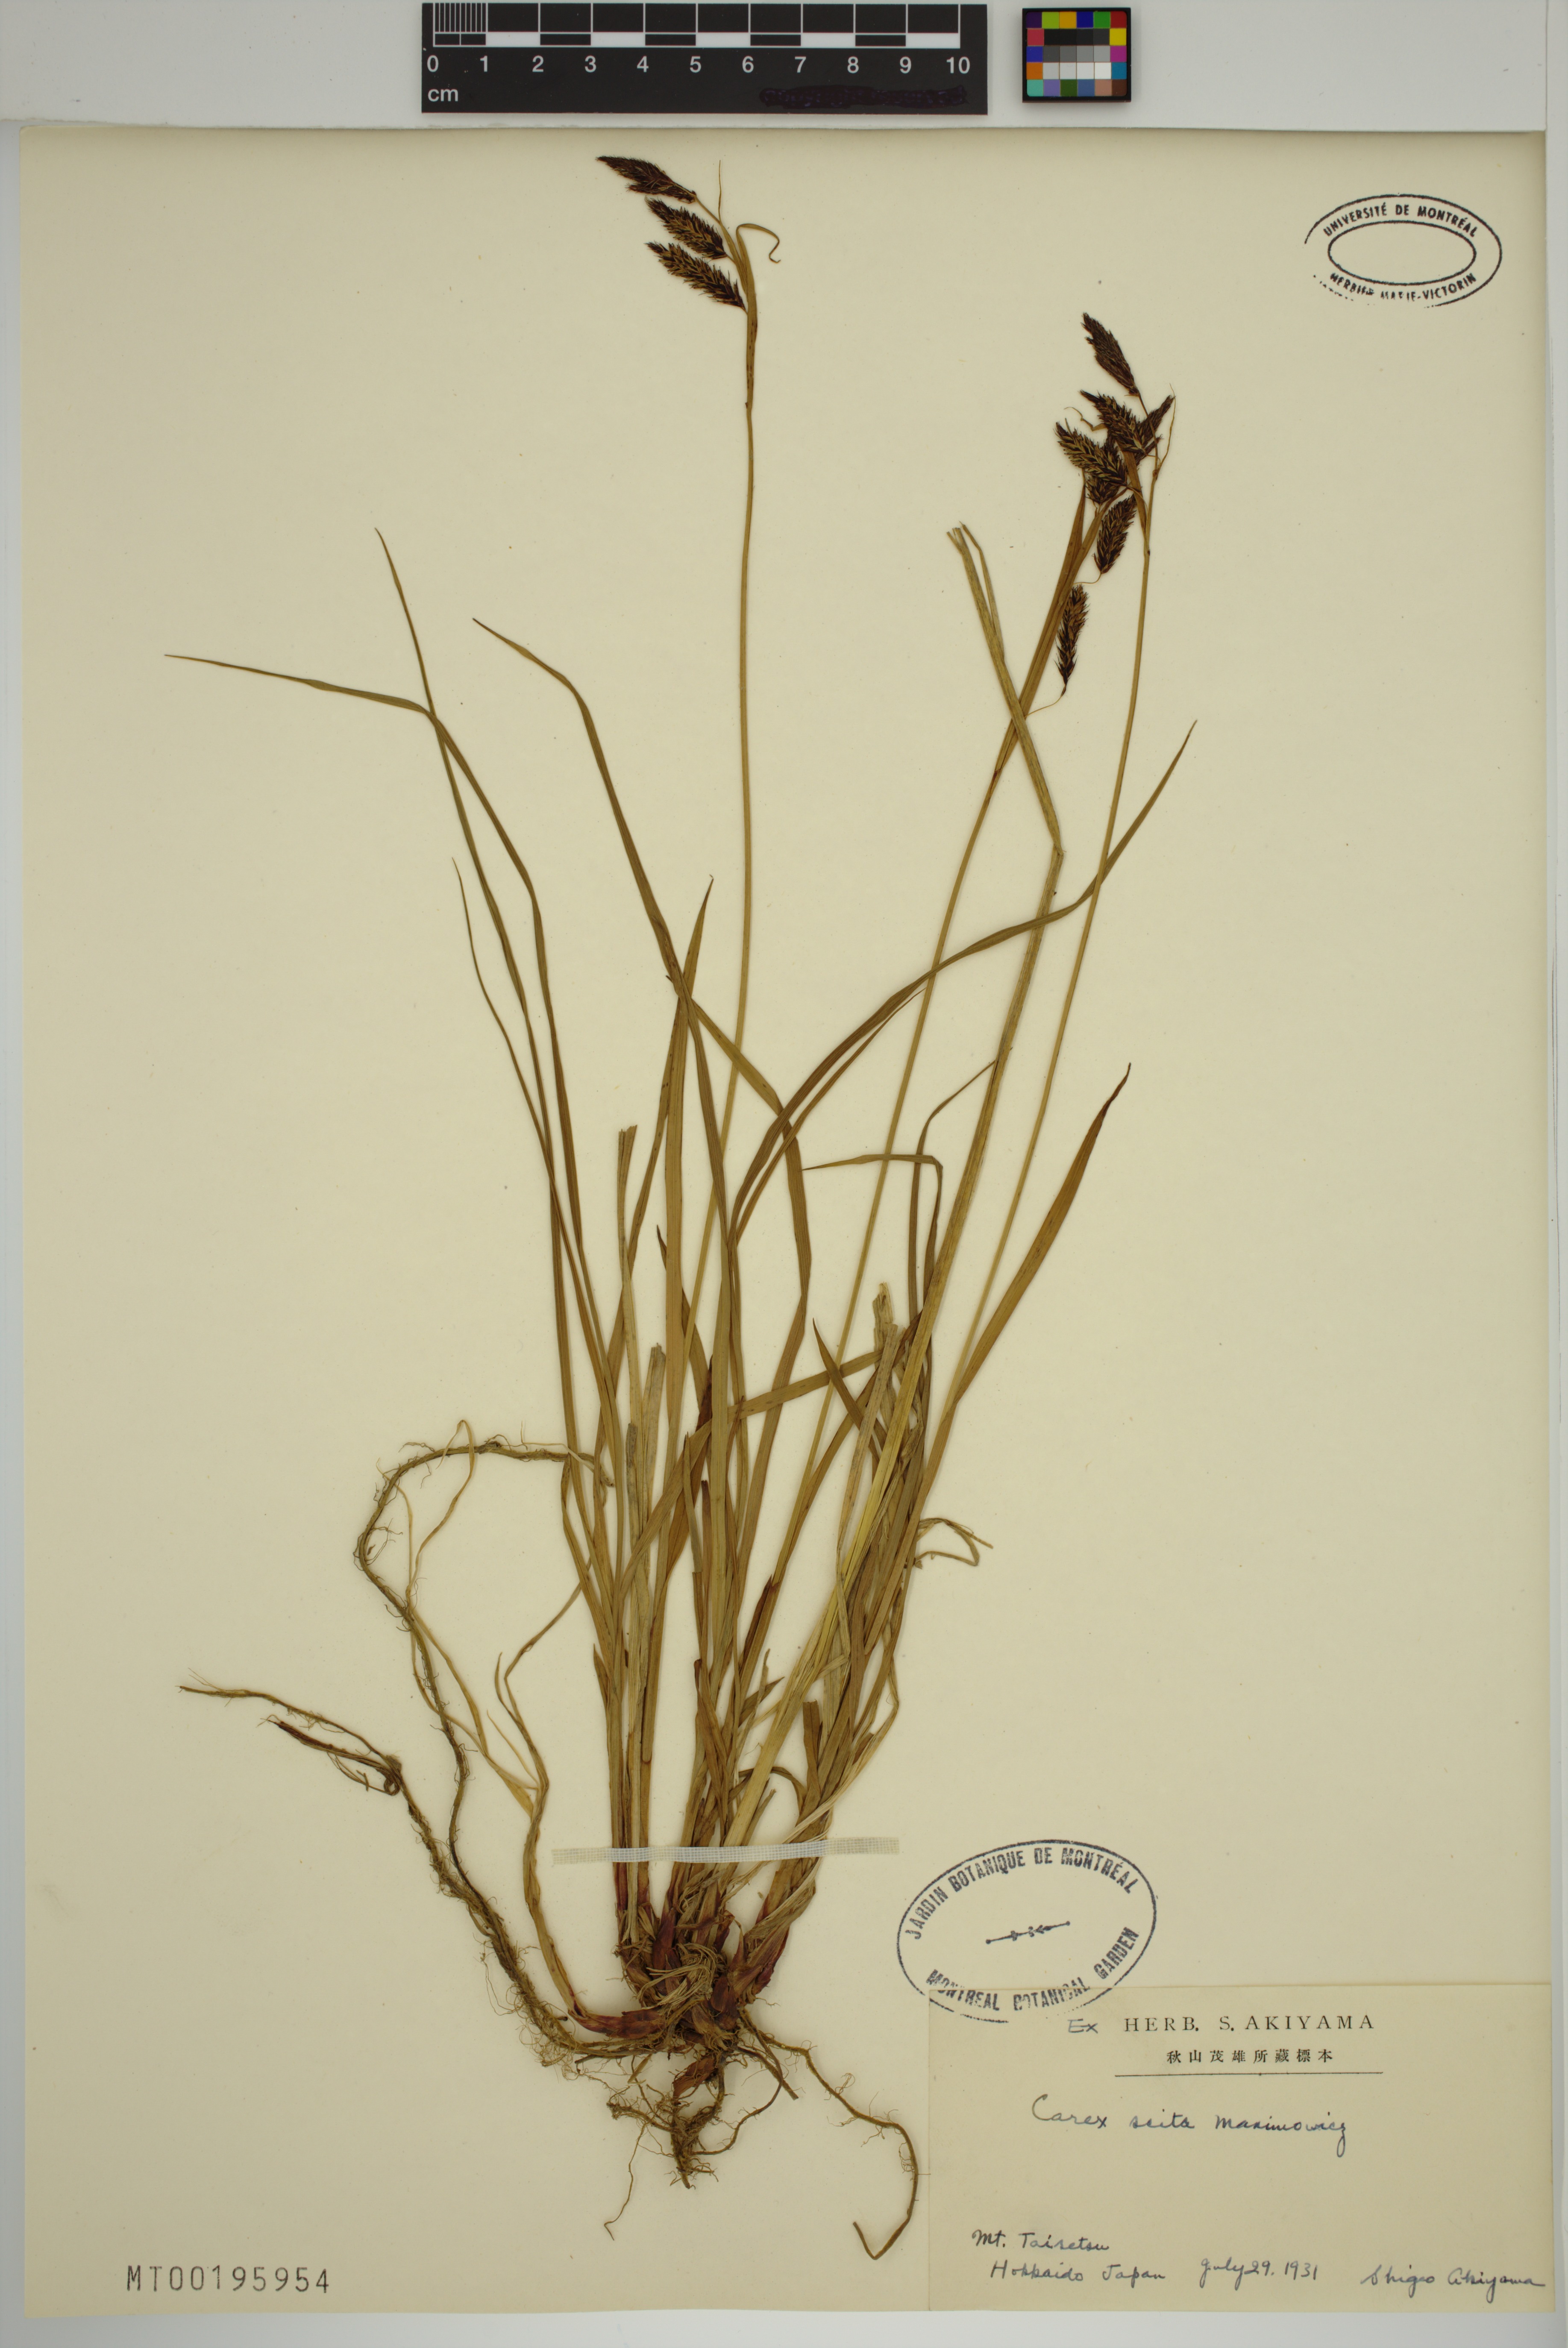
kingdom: Plantae
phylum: Tracheophyta
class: Liliopsida
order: Poales
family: Cyperaceae
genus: Carex
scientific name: Carex scita
